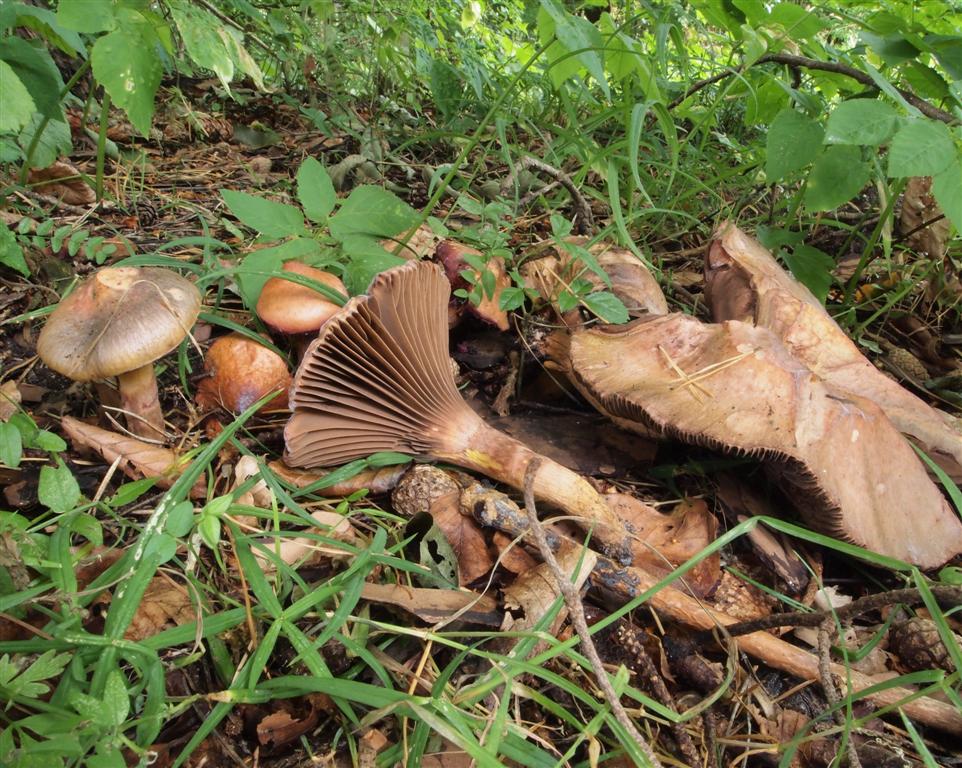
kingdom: Fungi
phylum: Basidiomycota
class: Agaricomycetes
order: Boletales
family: Gomphidiaceae
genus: Chroogomphus
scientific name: Chroogomphus rutilus
